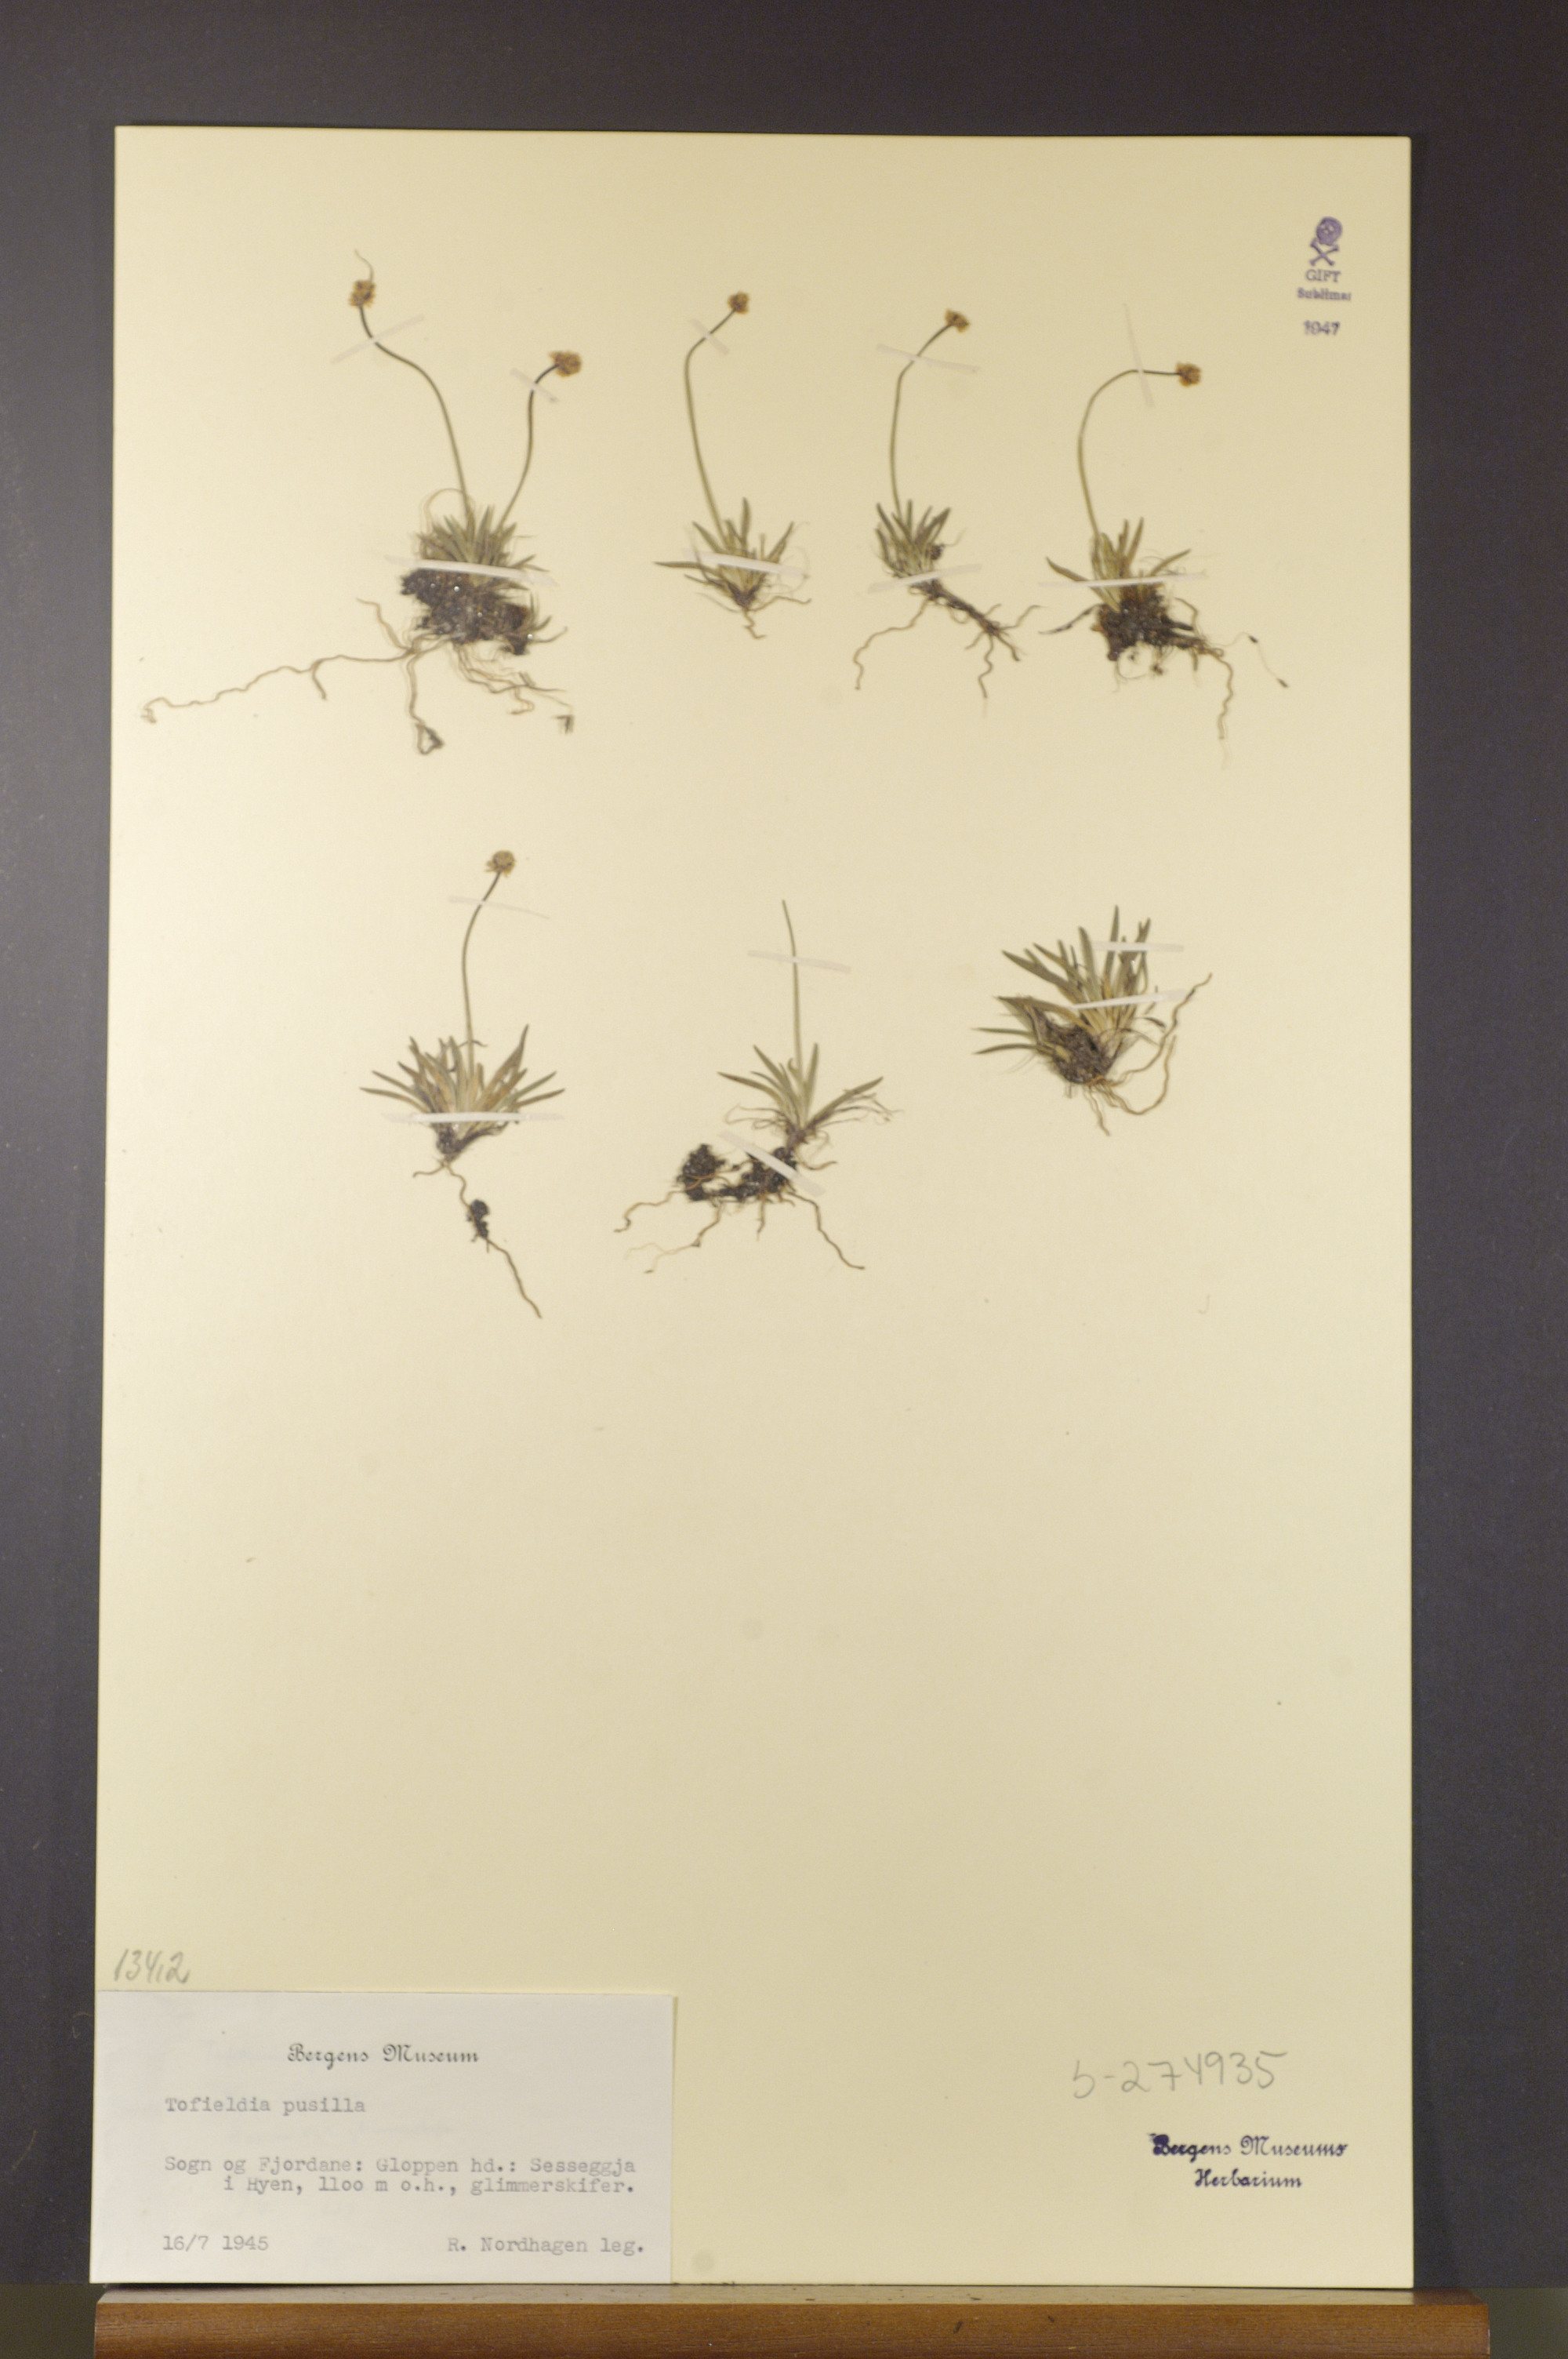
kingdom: Plantae
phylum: Tracheophyta
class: Liliopsida
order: Alismatales
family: Tofieldiaceae
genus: Tofieldia
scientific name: Tofieldia pusilla
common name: Scottish false asphodel
